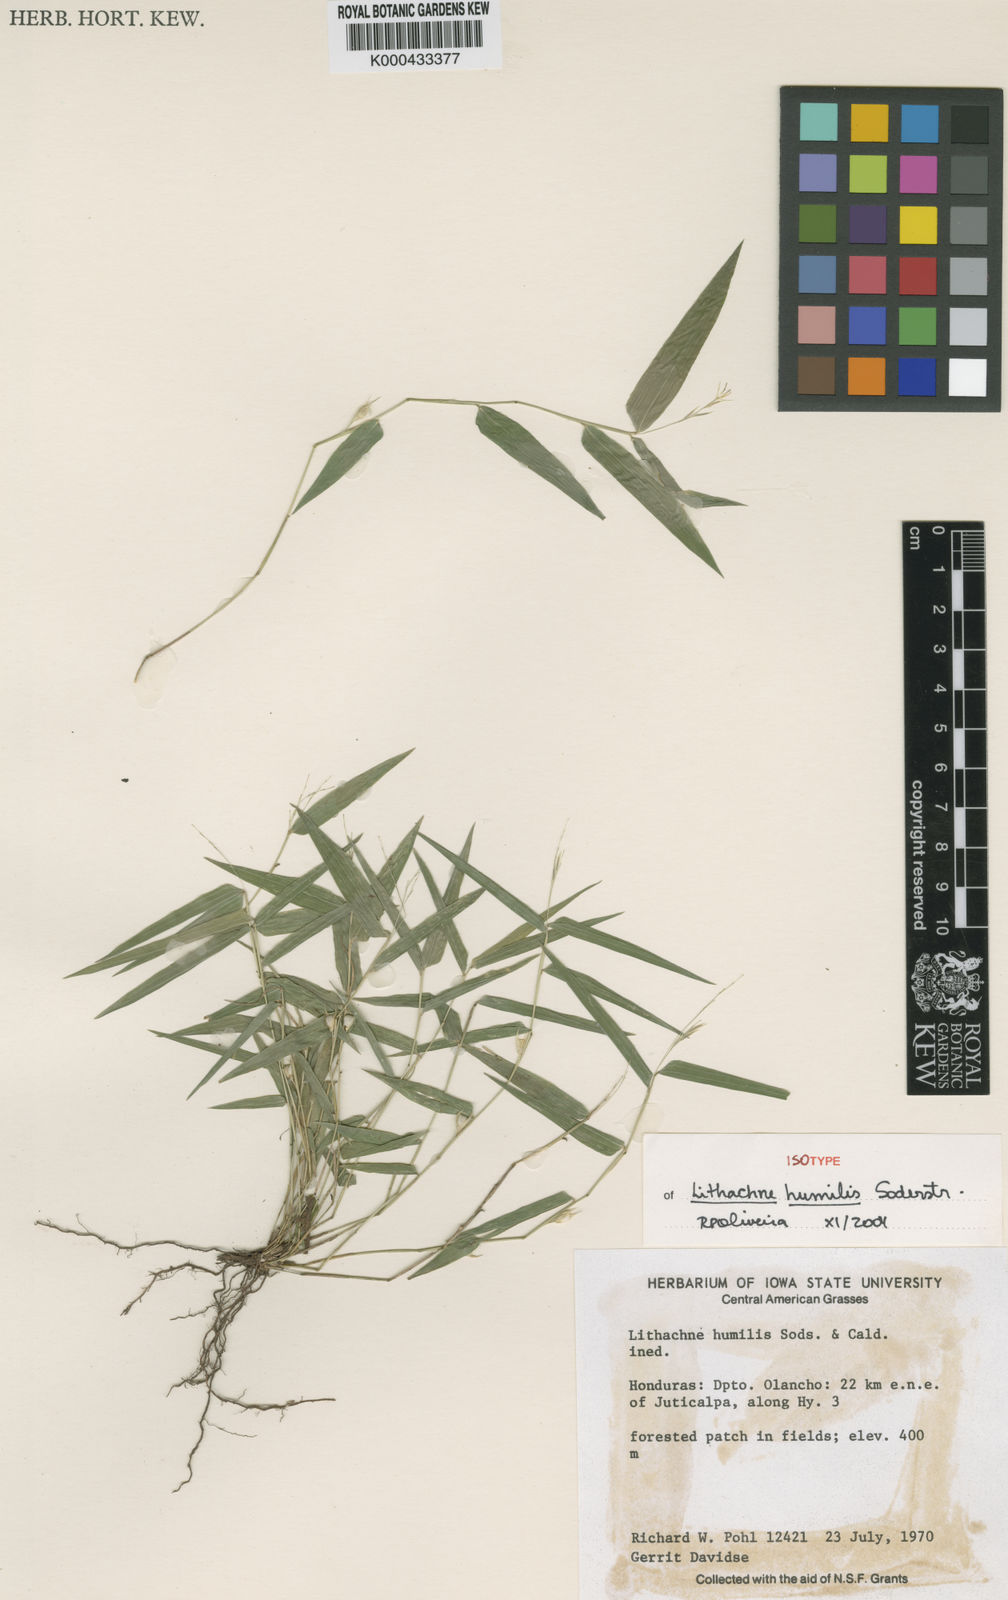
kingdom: Plantae
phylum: Tracheophyta
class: Liliopsida
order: Poales
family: Poaceae
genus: Lithachne
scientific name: Lithachne humilis
